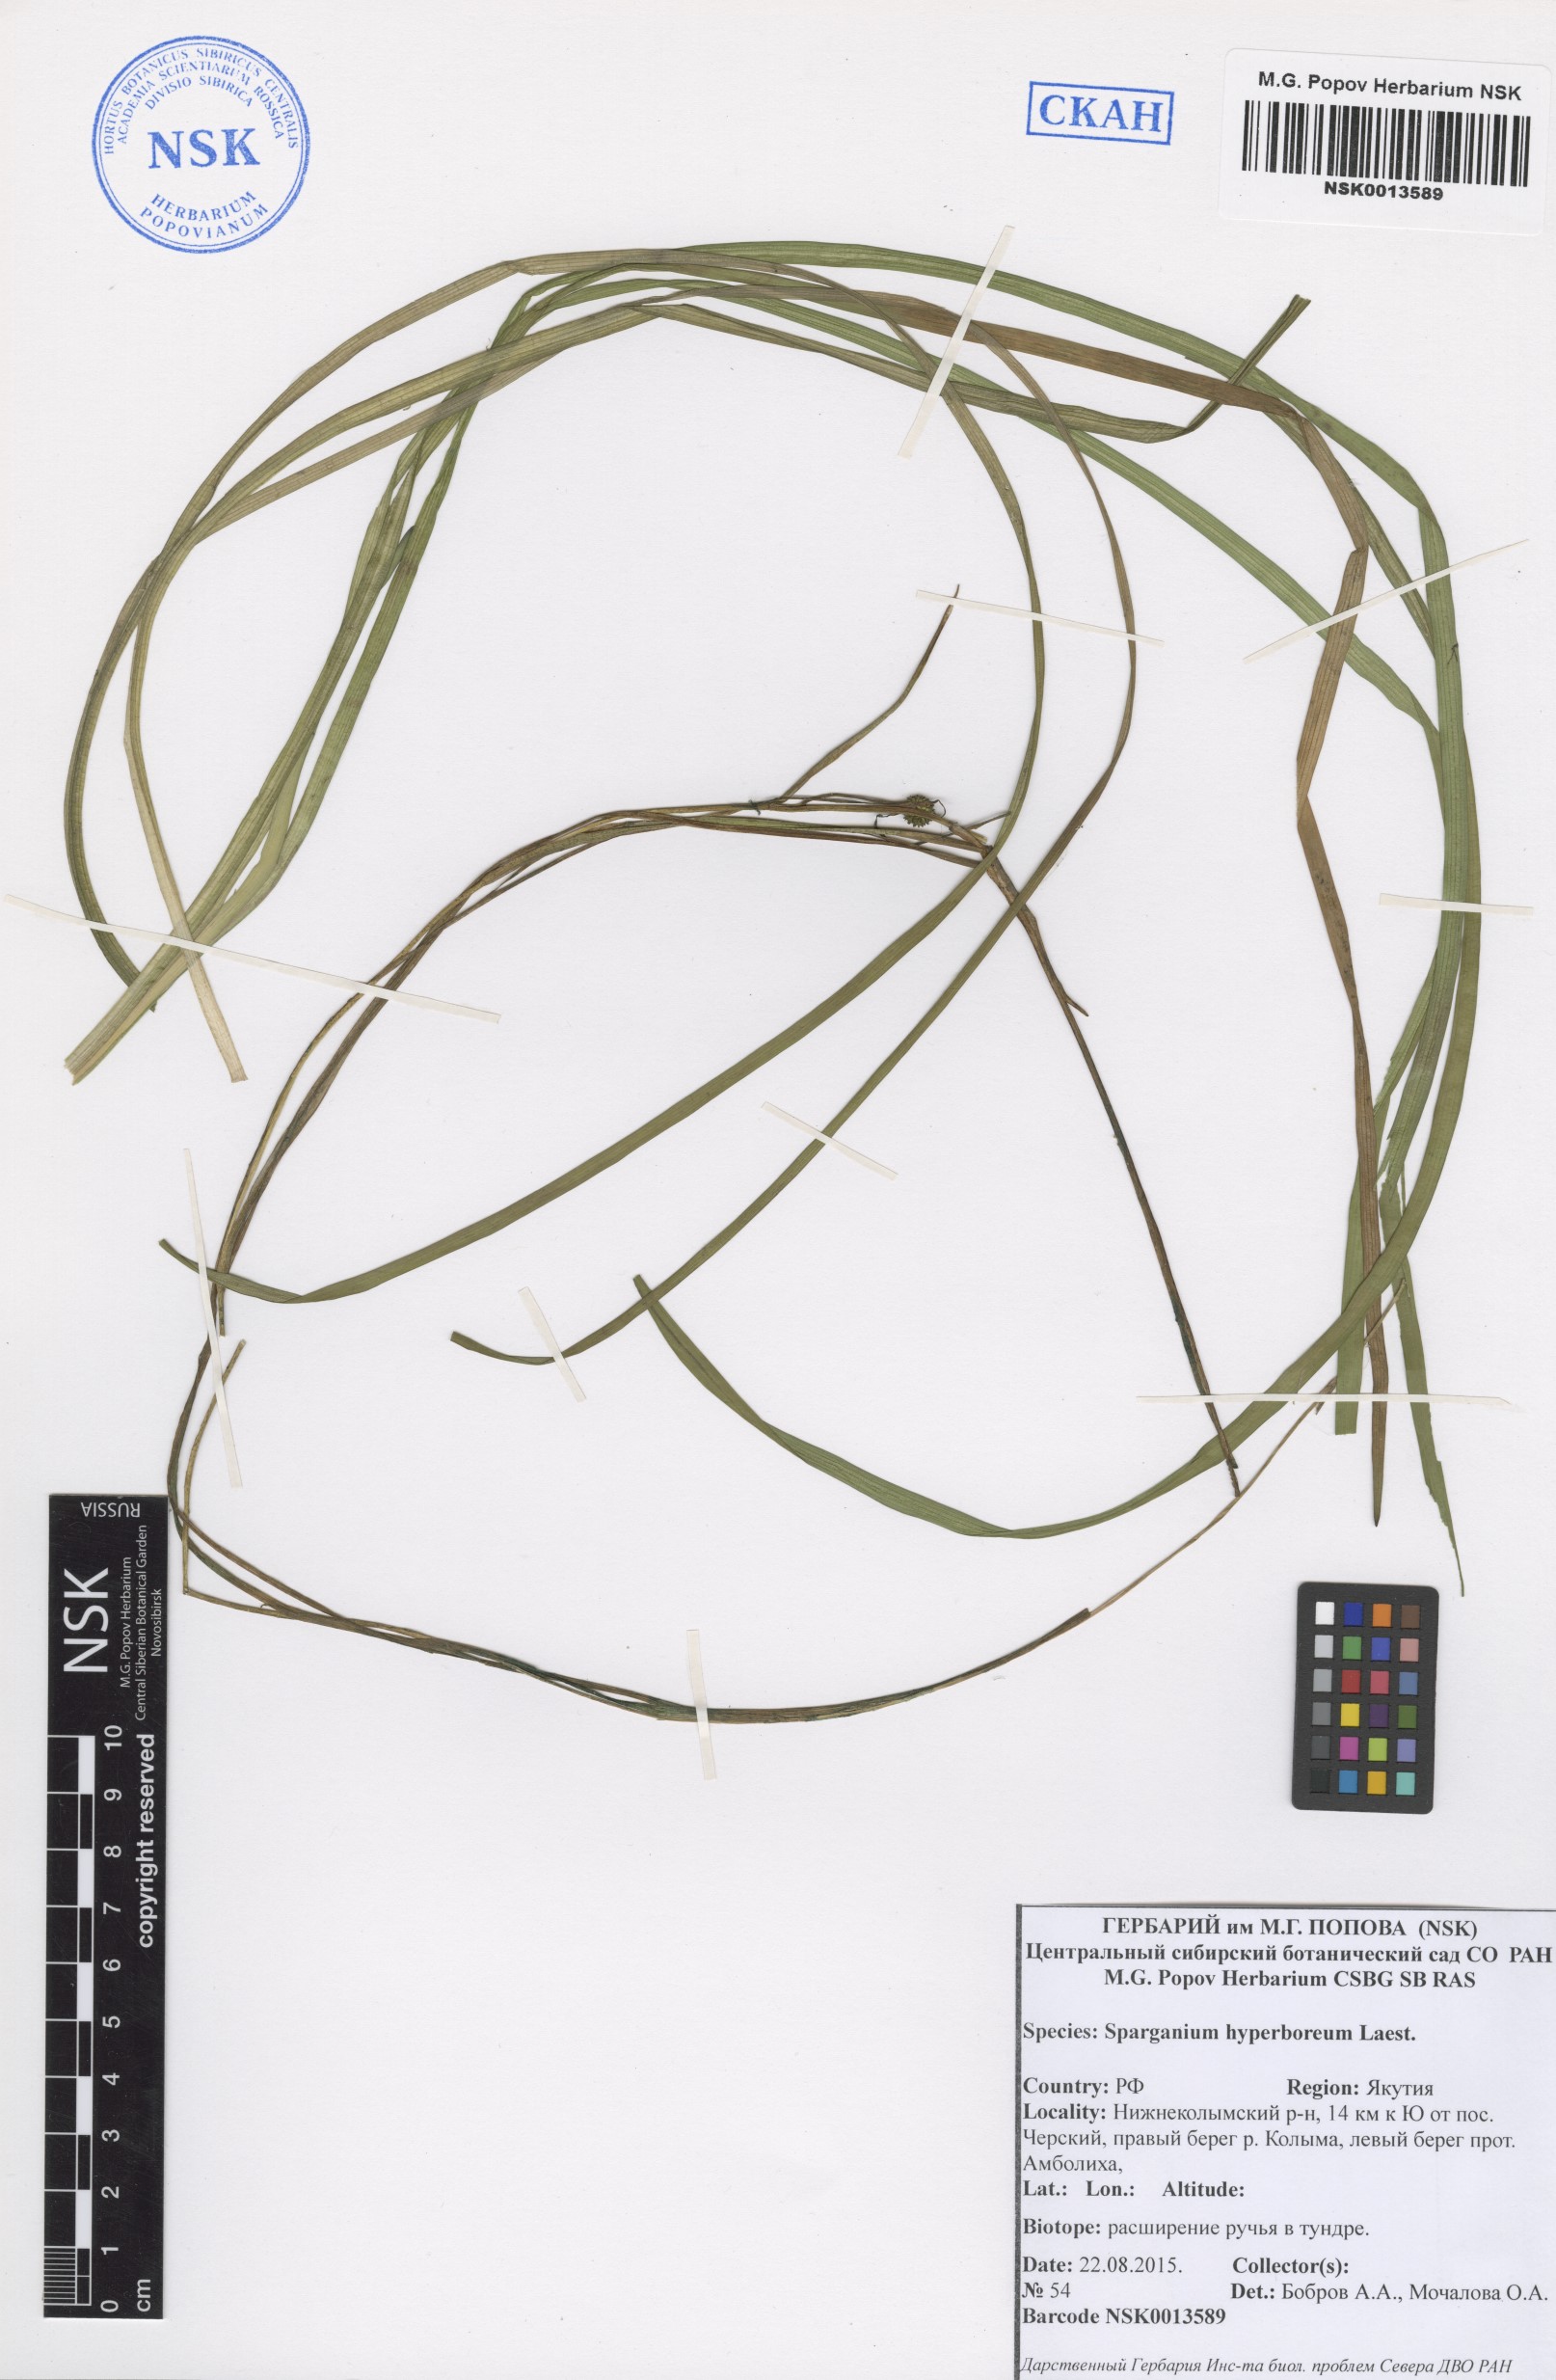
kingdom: Plantae
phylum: Tracheophyta
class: Liliopsida
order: Poales
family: Typhaceae
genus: Sparganium
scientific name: Sparganium hyperboreum
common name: Arctic burreed
